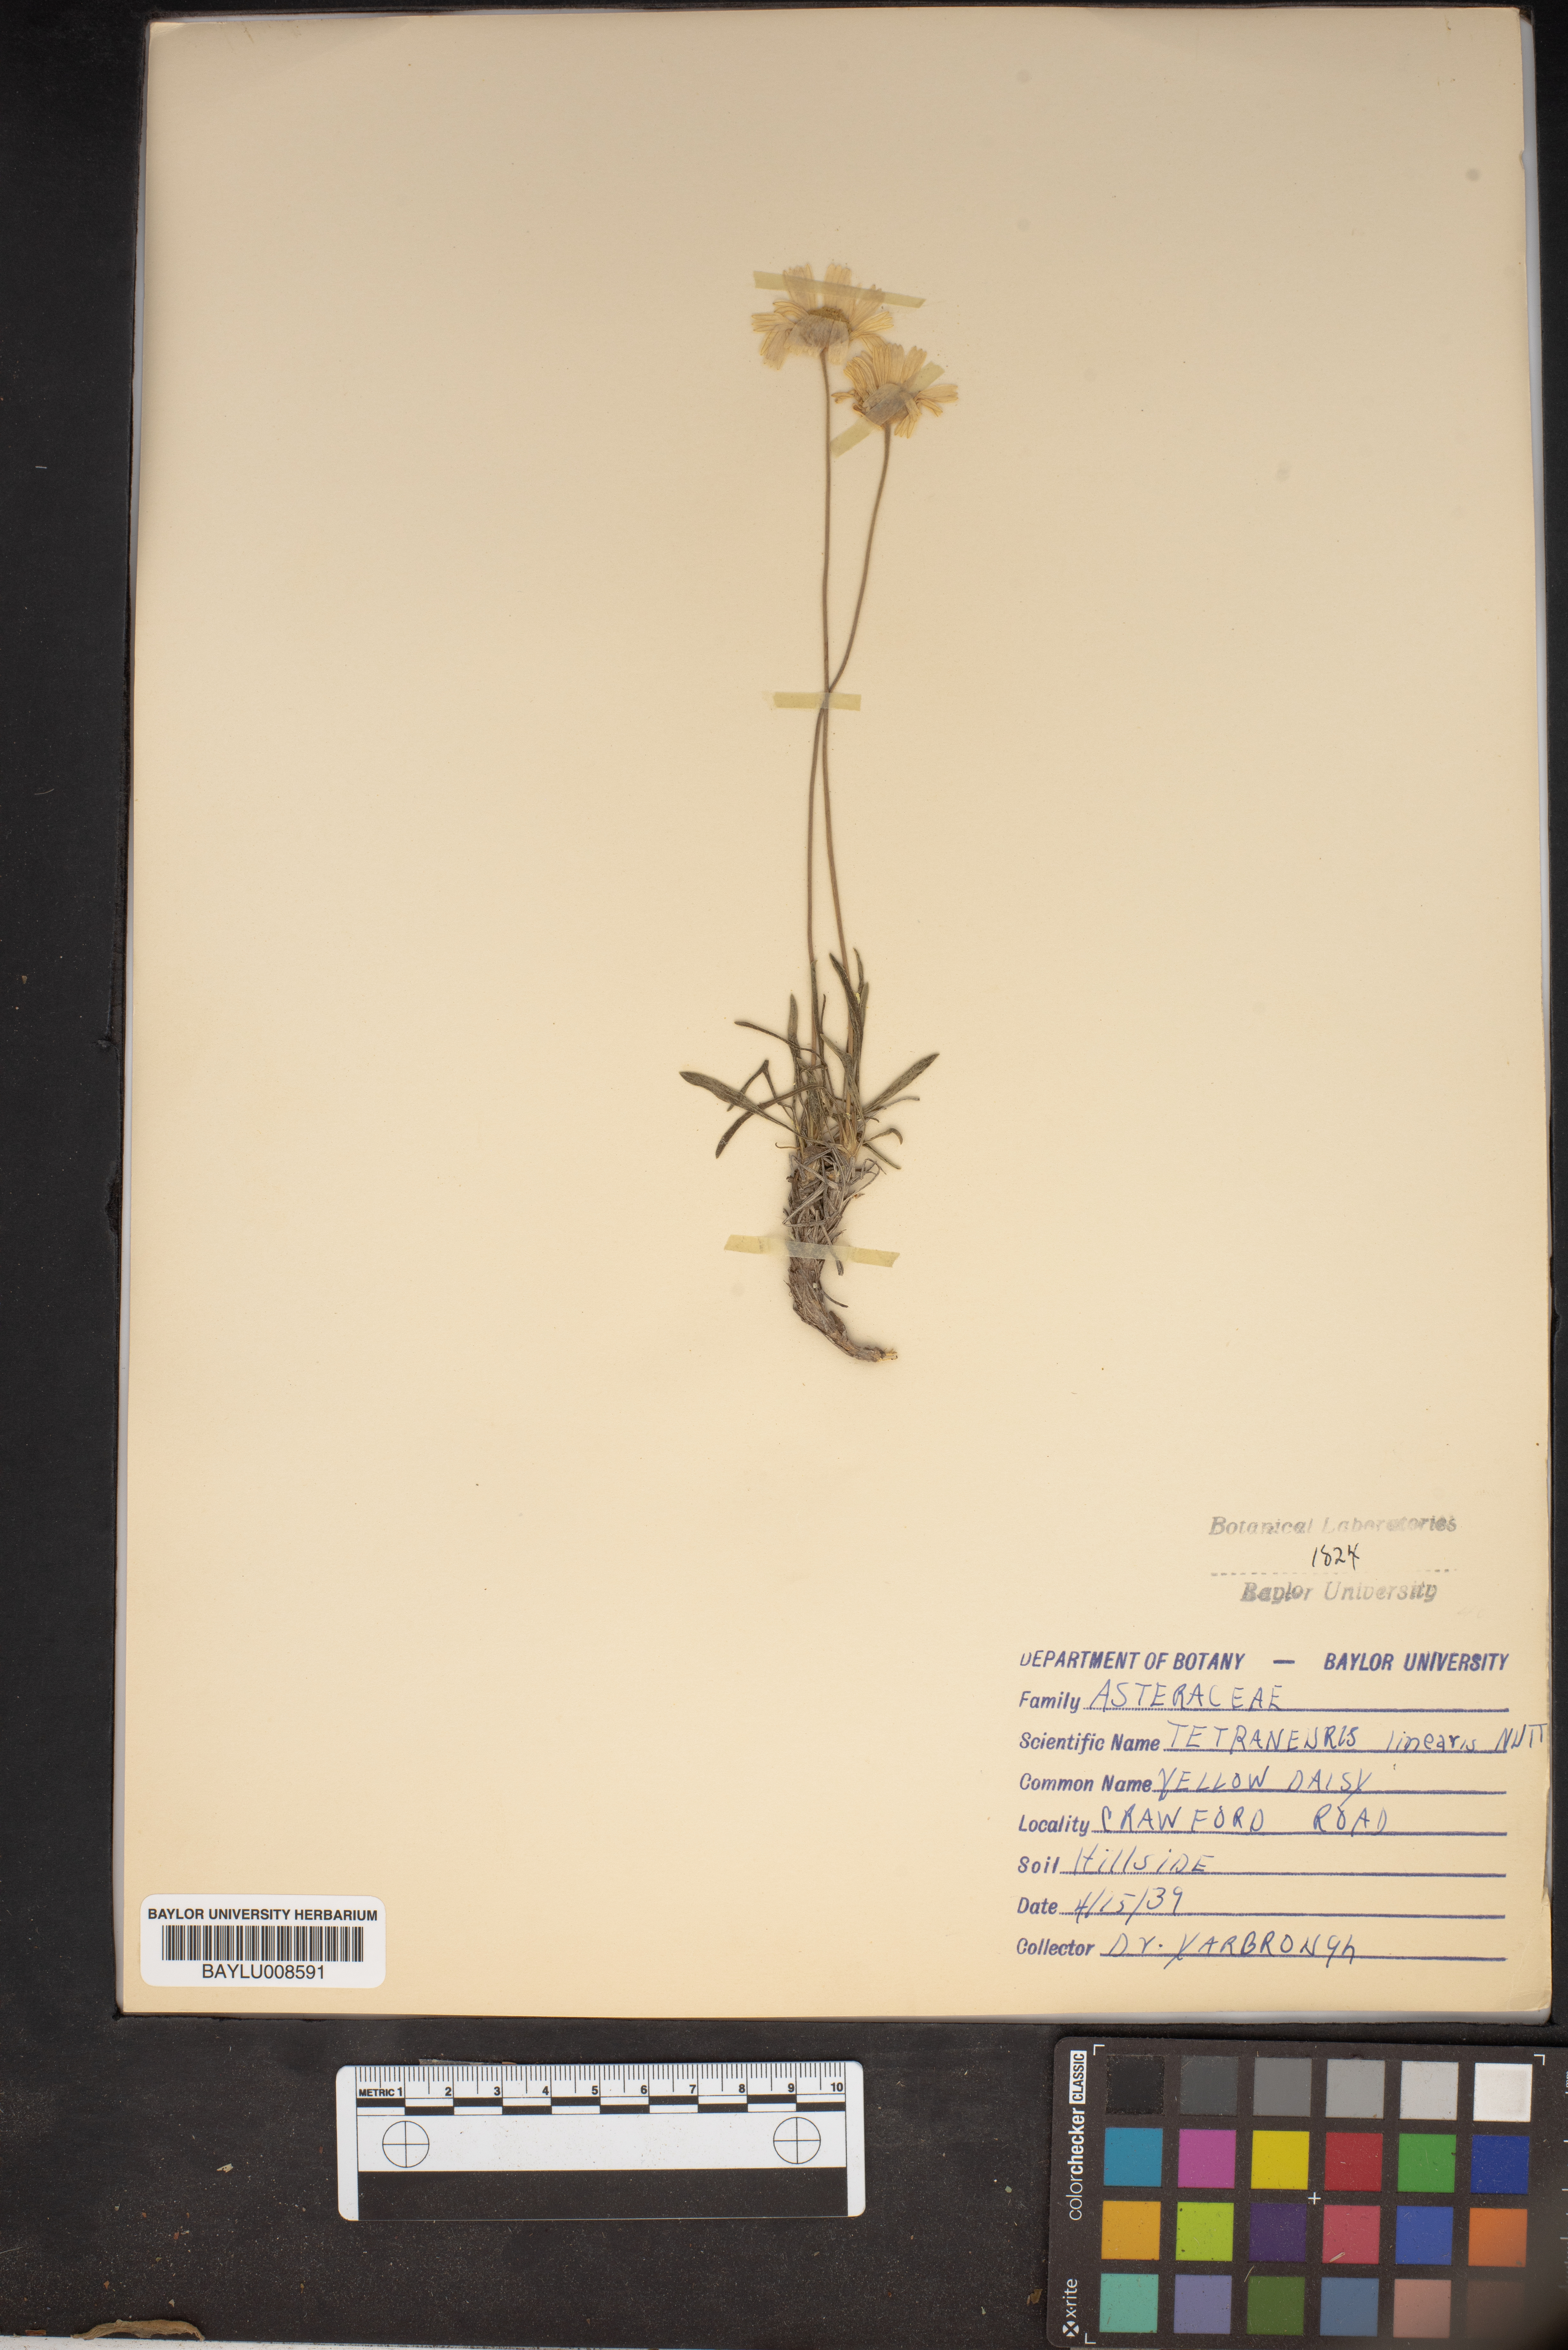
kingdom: Plantae
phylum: Tracheophyta
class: Magnoliopsida
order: Asterales
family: Asteraceae
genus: Tetraneuris
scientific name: Tetraneuris scaposa
